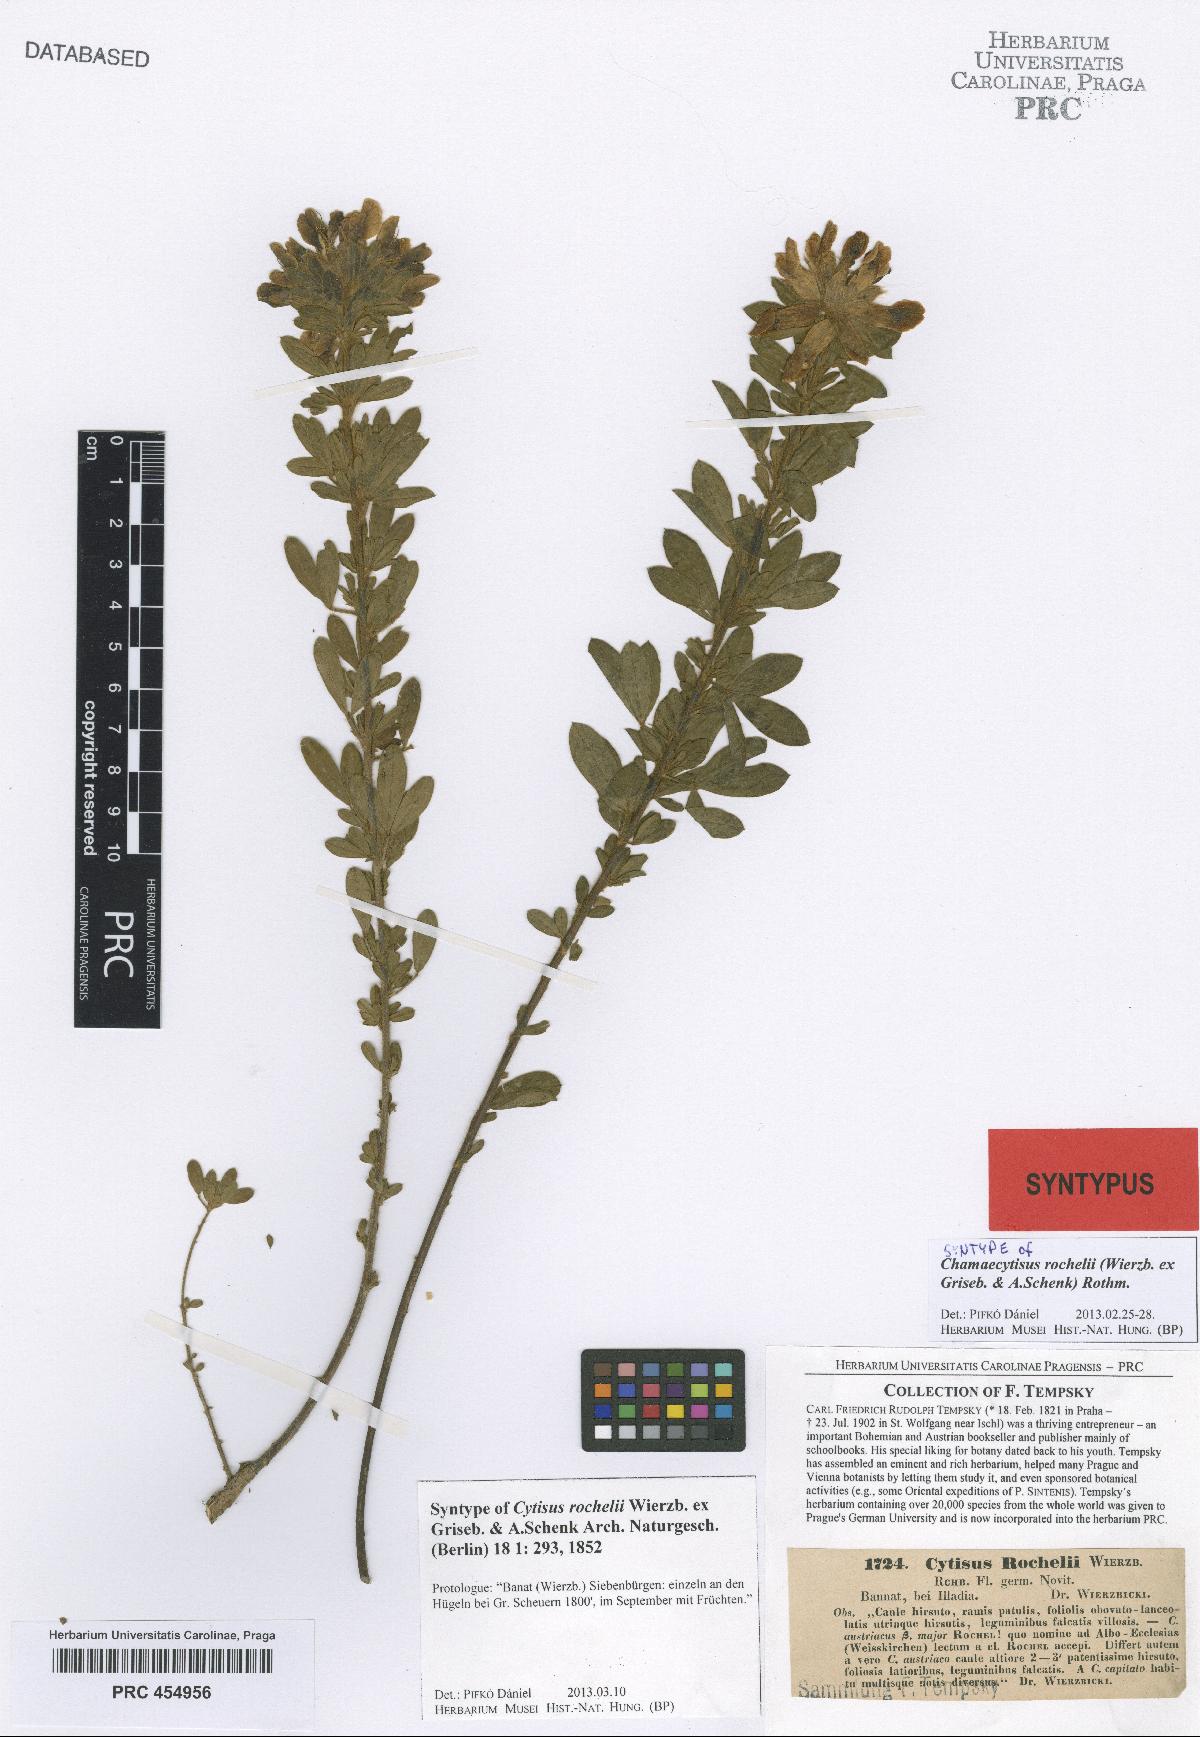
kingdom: Plantae
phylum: Tracheophyta
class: Magnoliopsida
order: Fabales
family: Fabaceae
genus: Chamaecytisus
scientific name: Chamaecytisus austriacus
